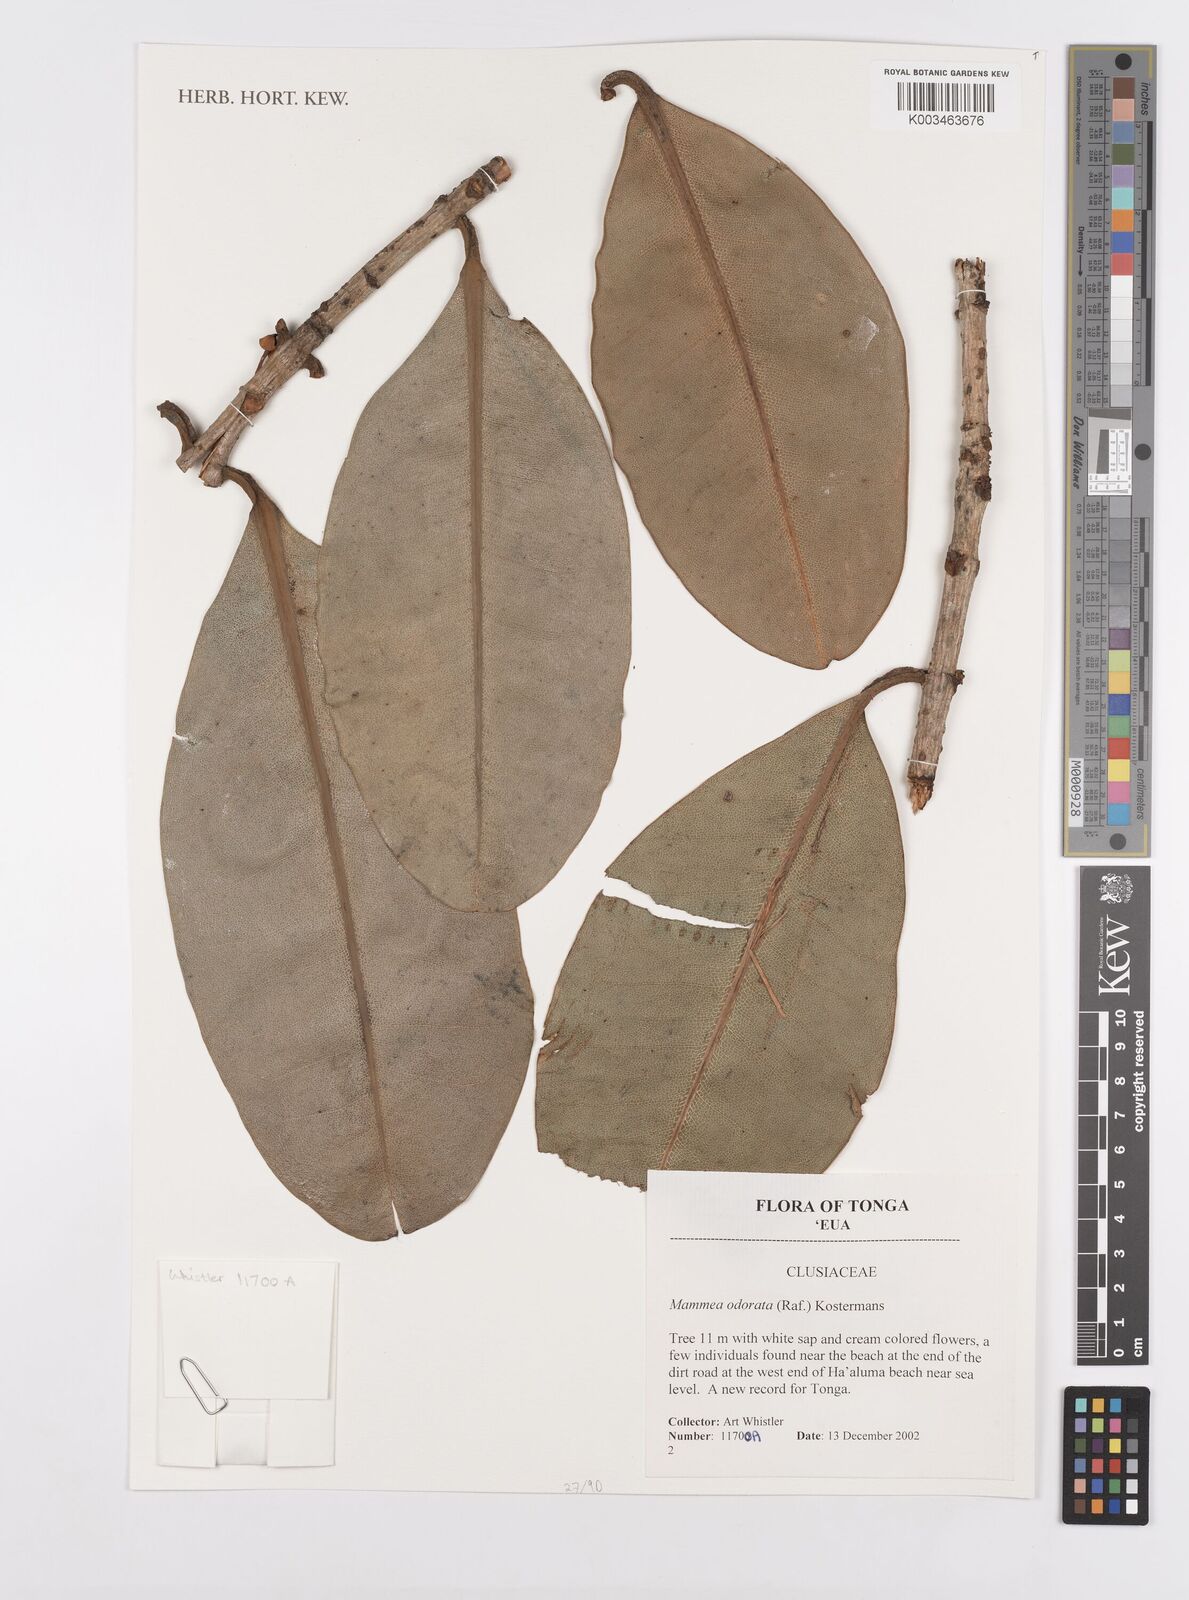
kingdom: Plantae
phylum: Tracheophyta
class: Magnoliopsida
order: Malpighiales
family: Calophyllaceae
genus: Mammea
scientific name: Mammea odorata
